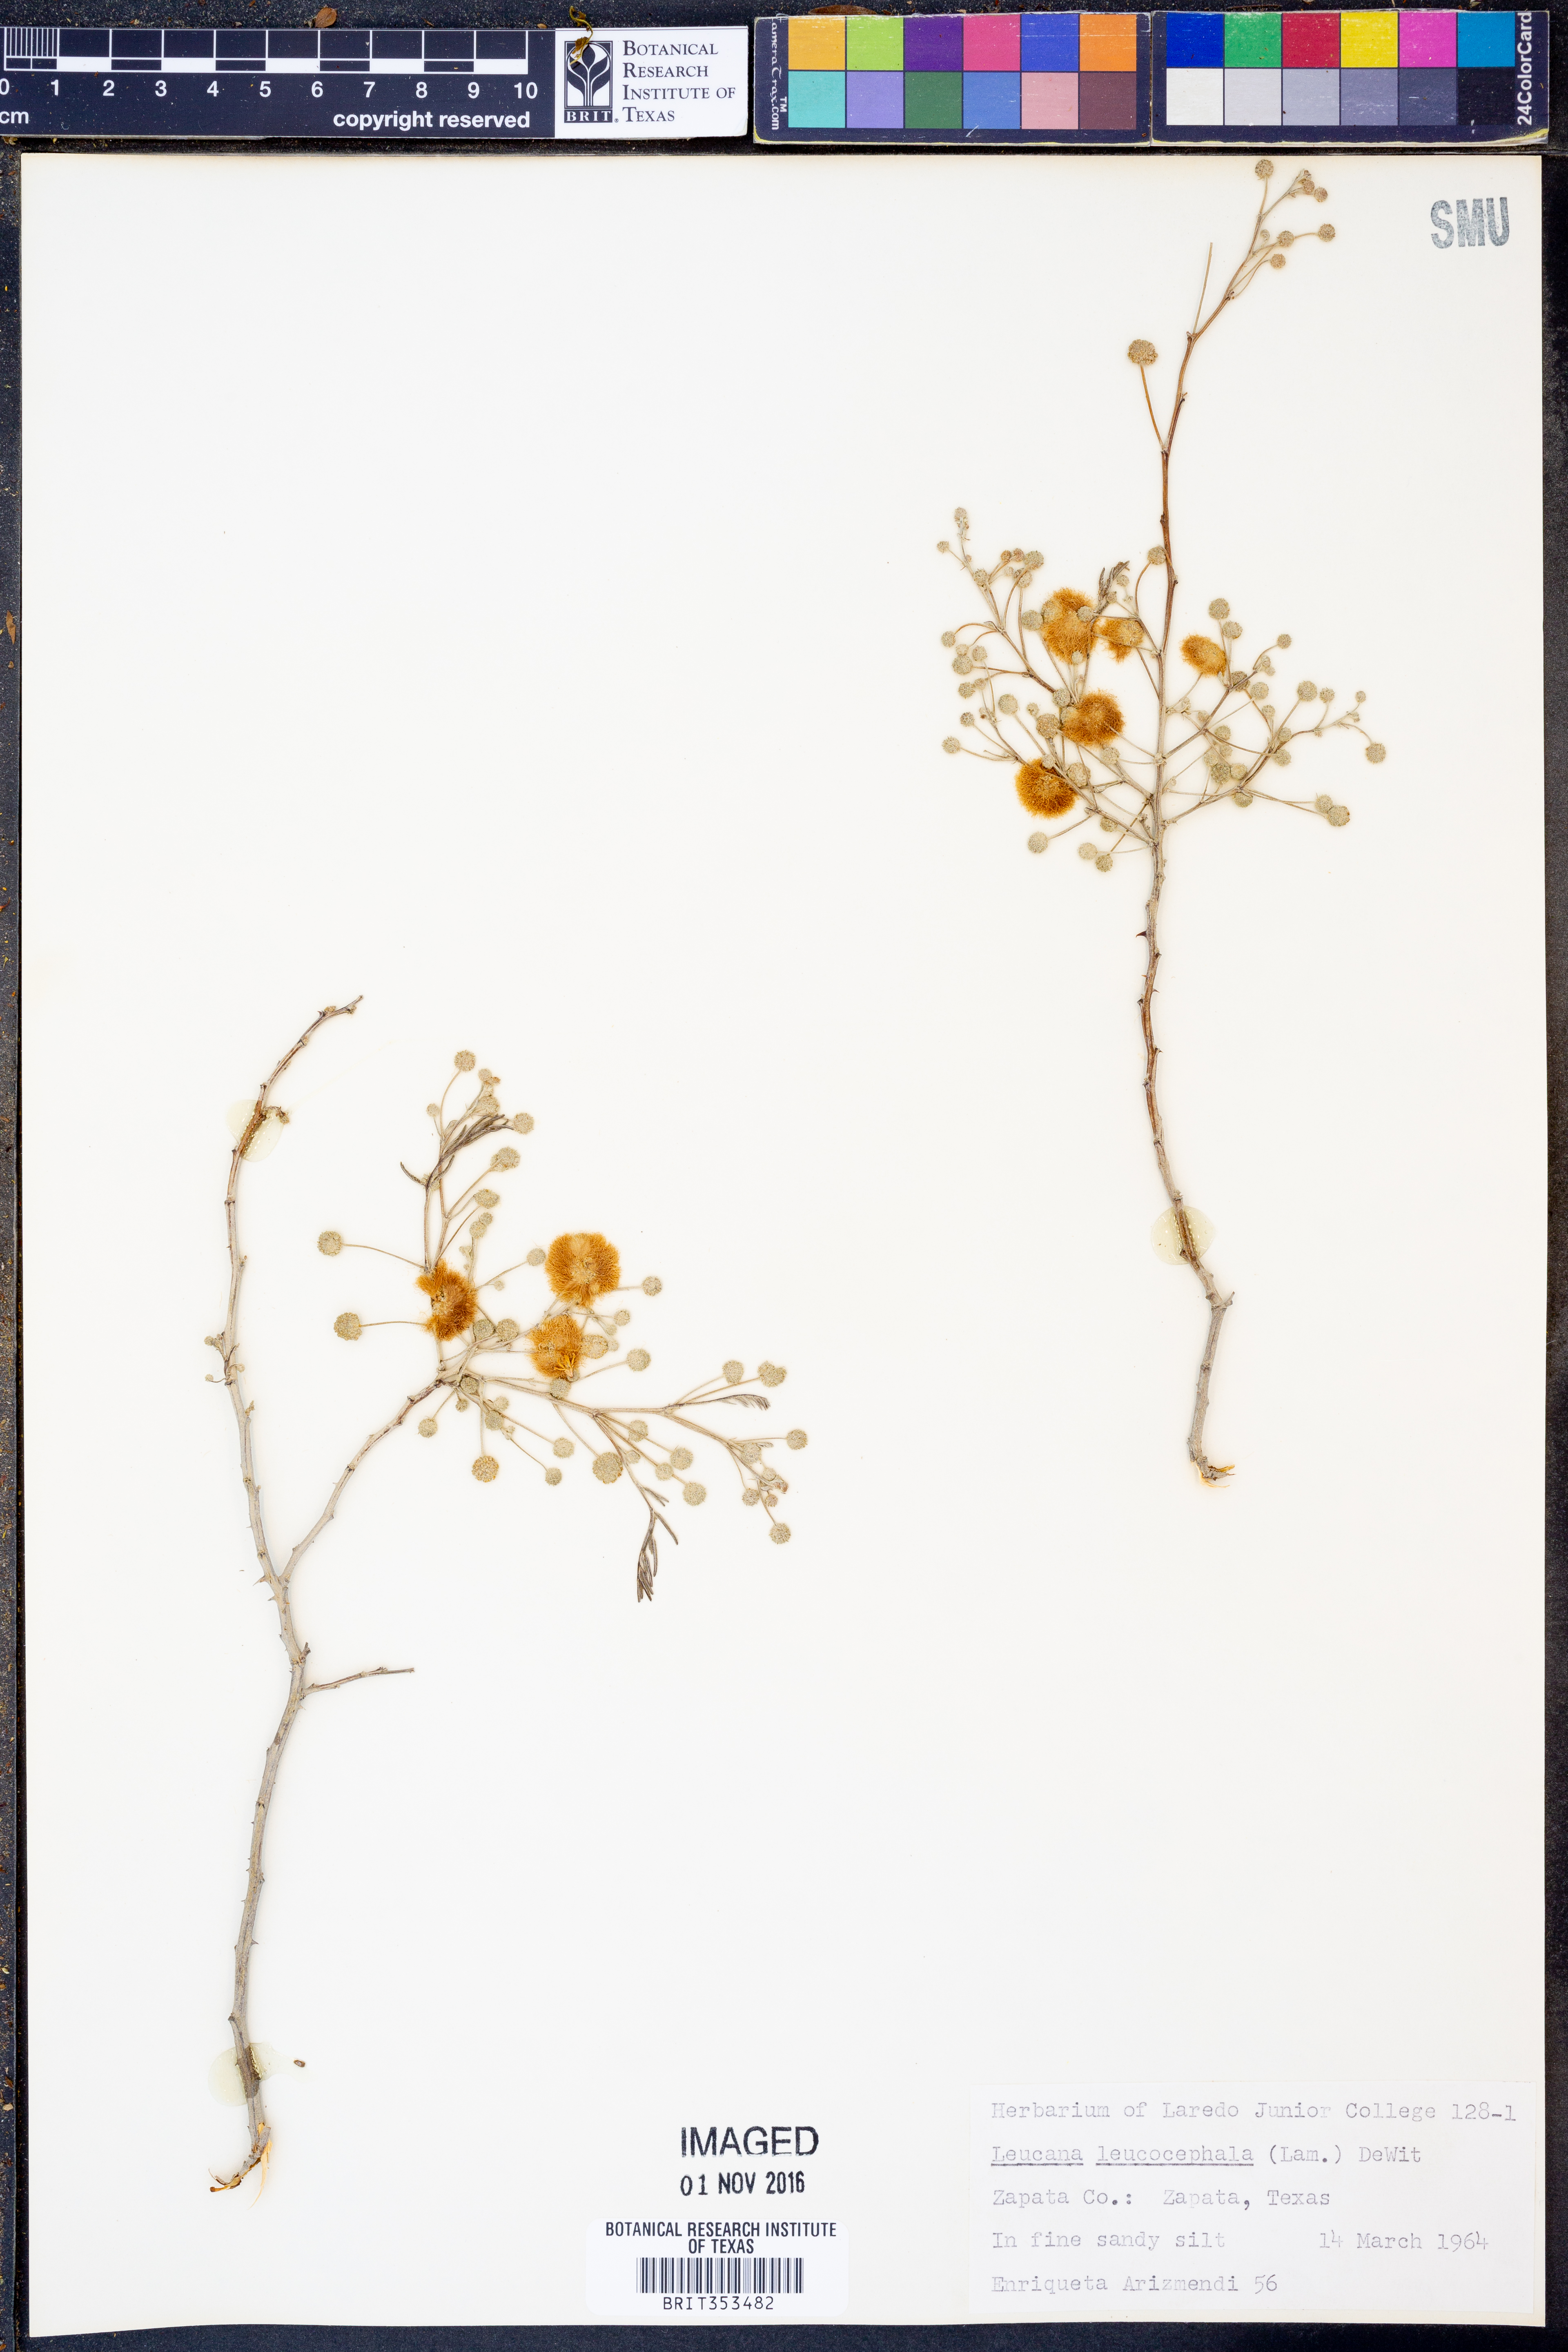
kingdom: Plantae
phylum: Tracheophyta
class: Magnoliopsida
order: Fabales
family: Fabaceae
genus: Leucaena
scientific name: Leucaena leucocephala
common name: White leadtree
